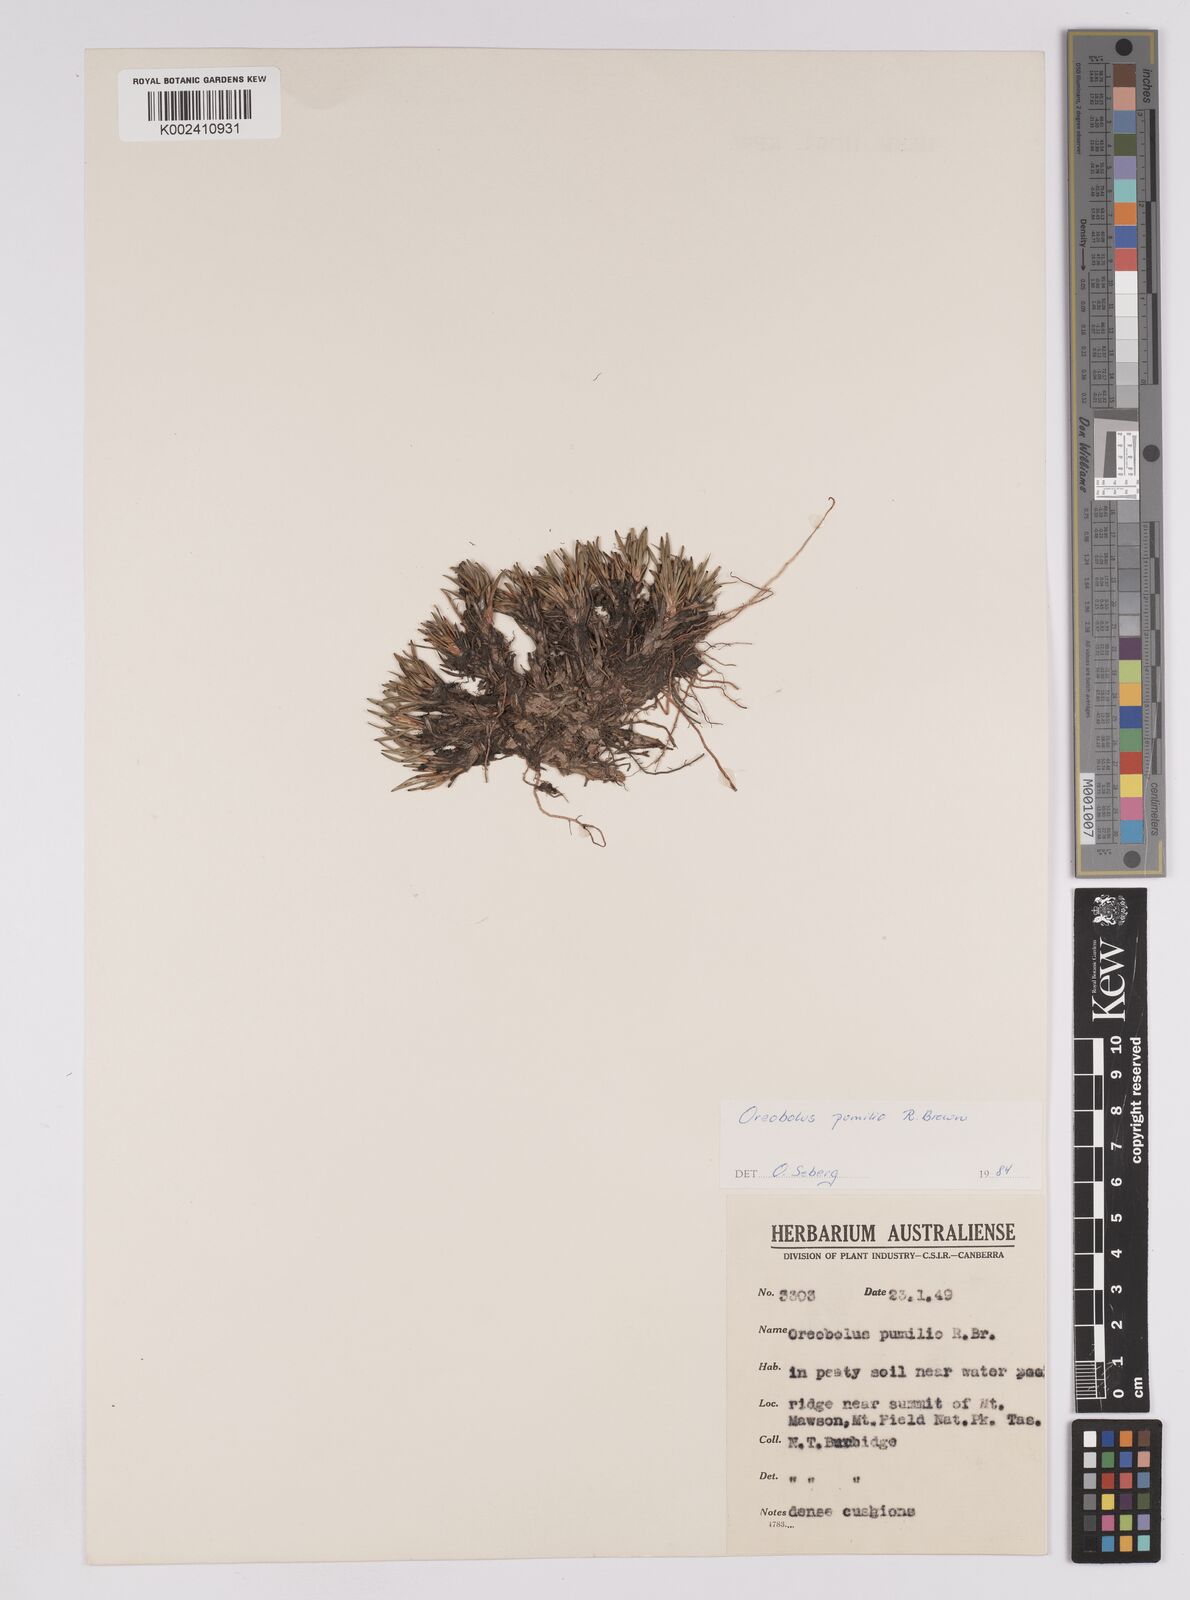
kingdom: Plantae
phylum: Tracheophyta
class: Liliopsida
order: Poales
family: Cyperaceae
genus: Oreobolus
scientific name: Oreobolus pumilio
